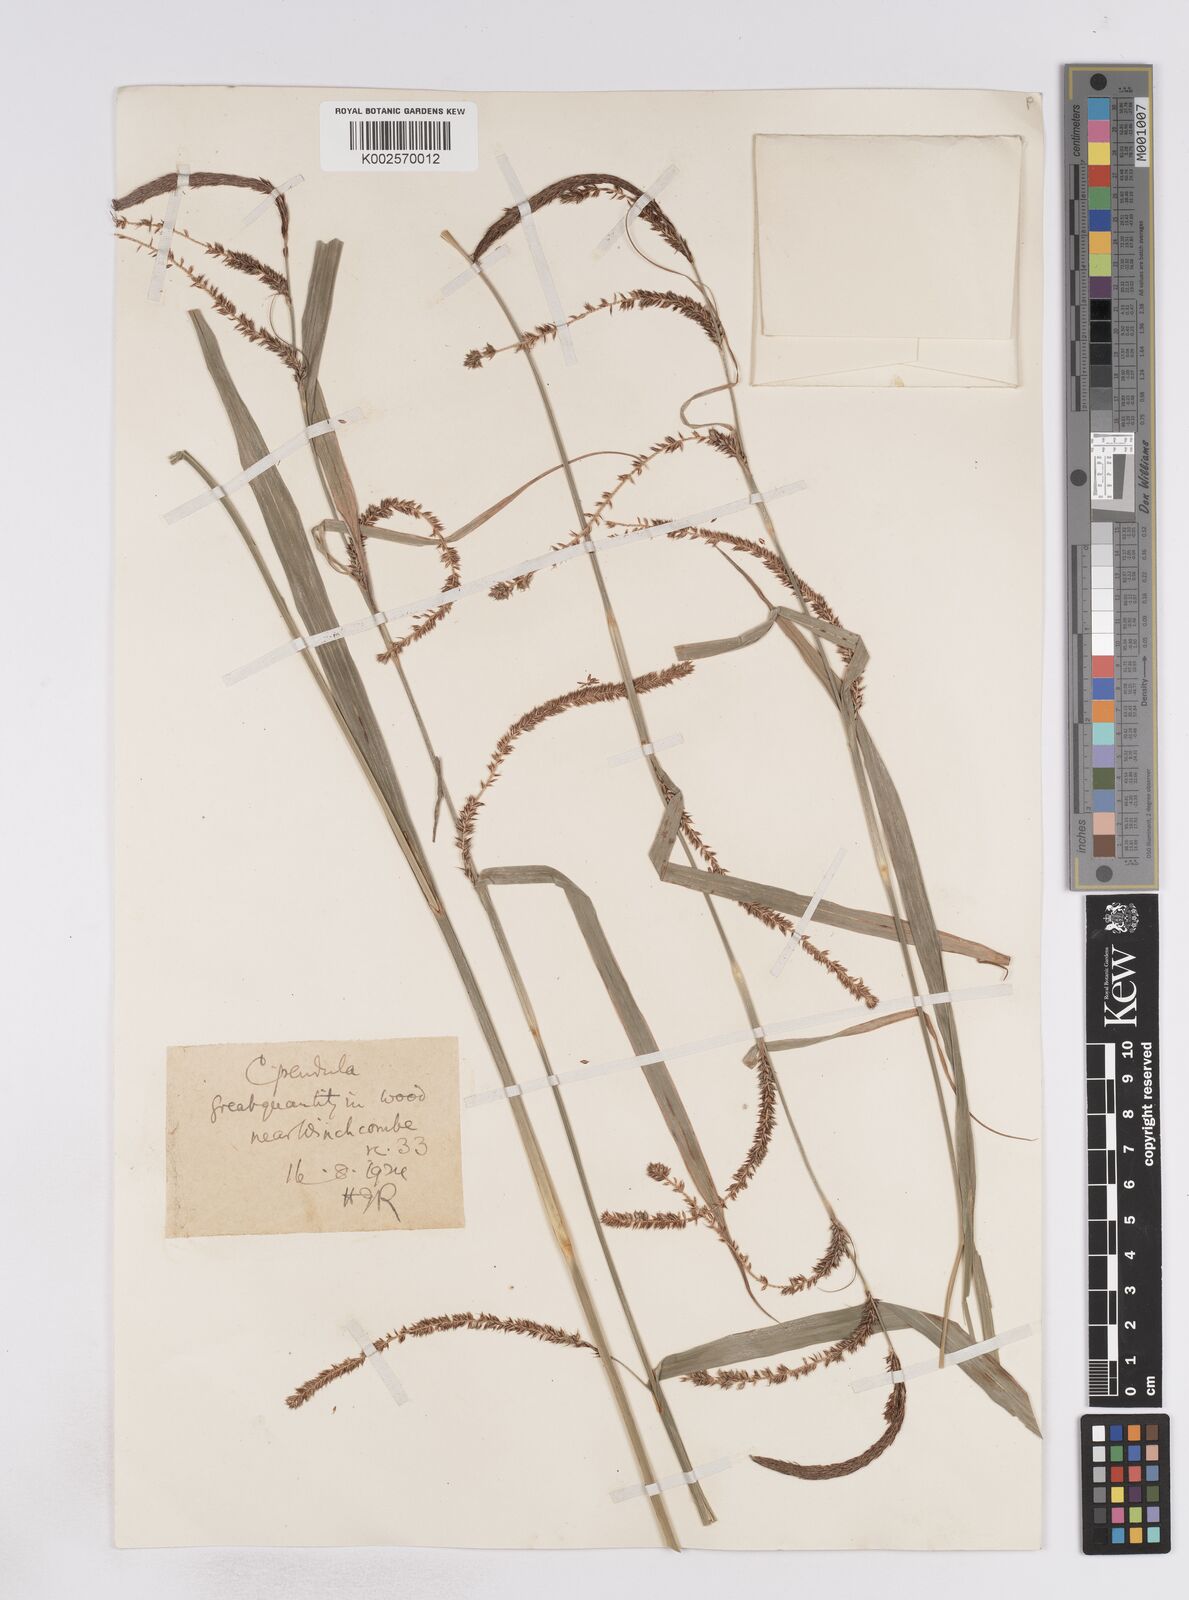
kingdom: Plantae
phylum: Tracheophyta
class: Liliopsida
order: Poales
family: Cyperaceae
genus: Carex
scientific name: Carex pendula
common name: Pendulous sedge
